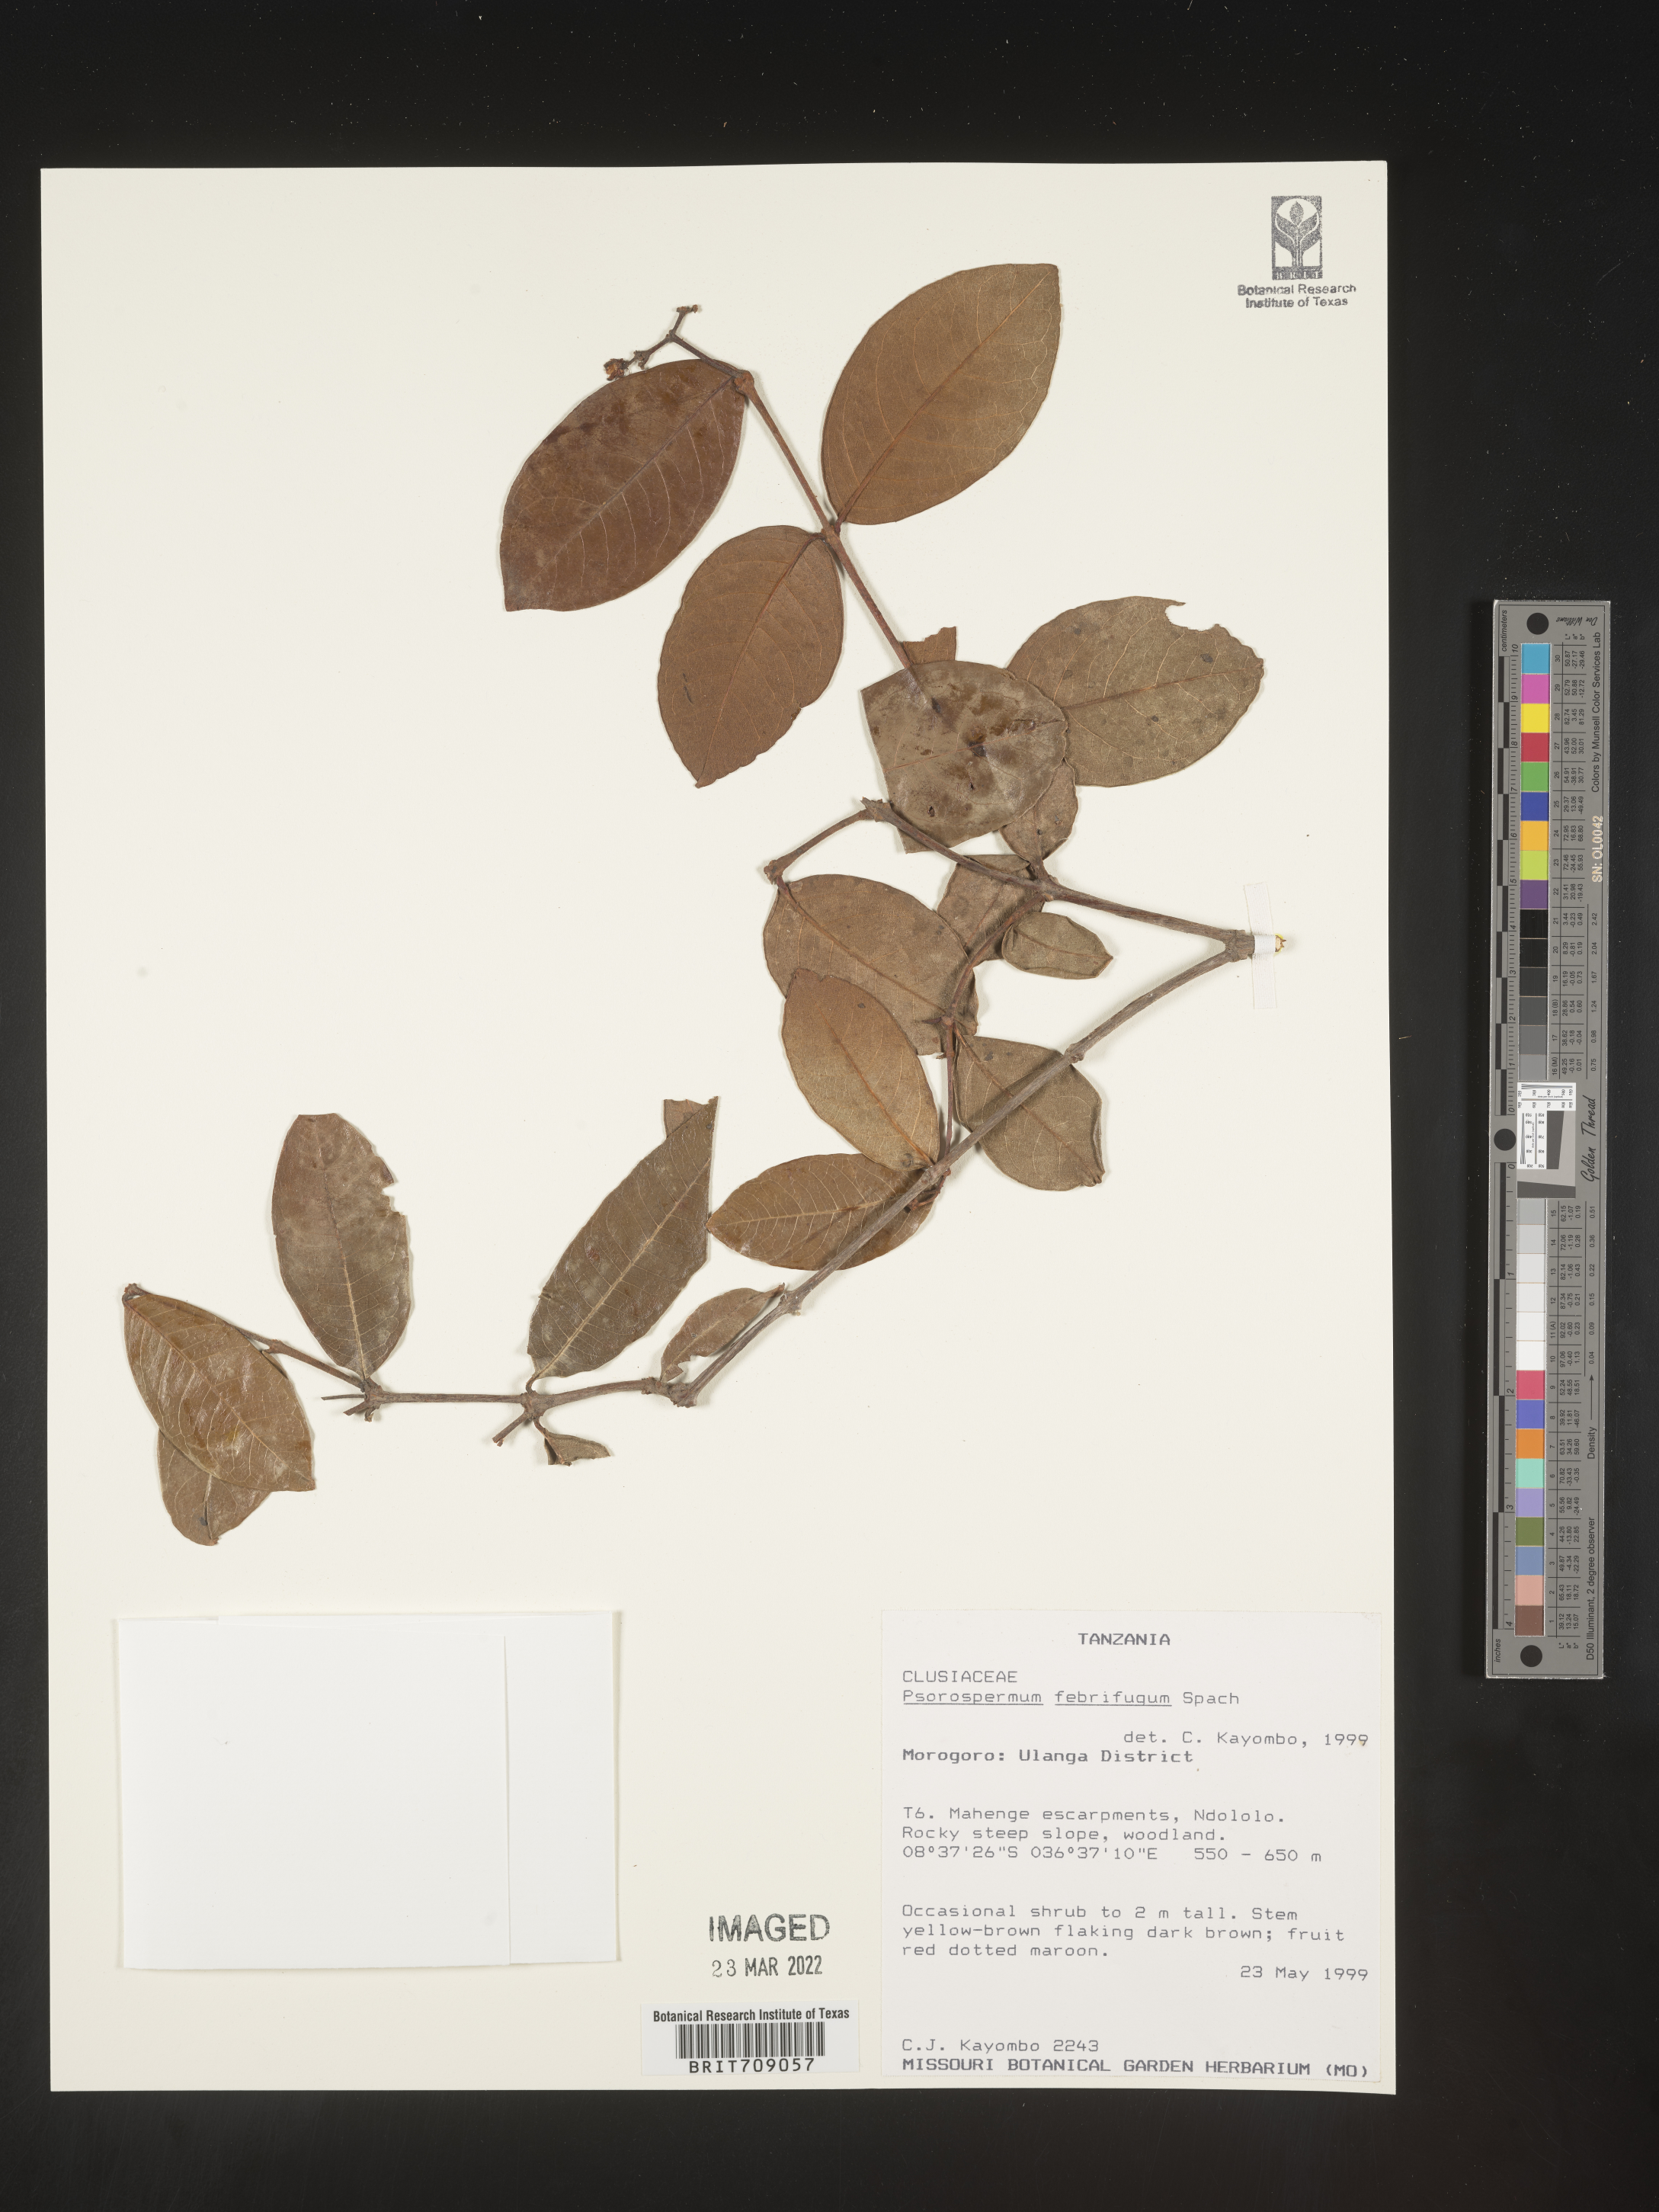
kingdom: Plantae
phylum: Tracheophyta
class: Magnoliopsida
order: Malpighiales
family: Hypericaceae
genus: Psorospermum
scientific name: Psorospermum
